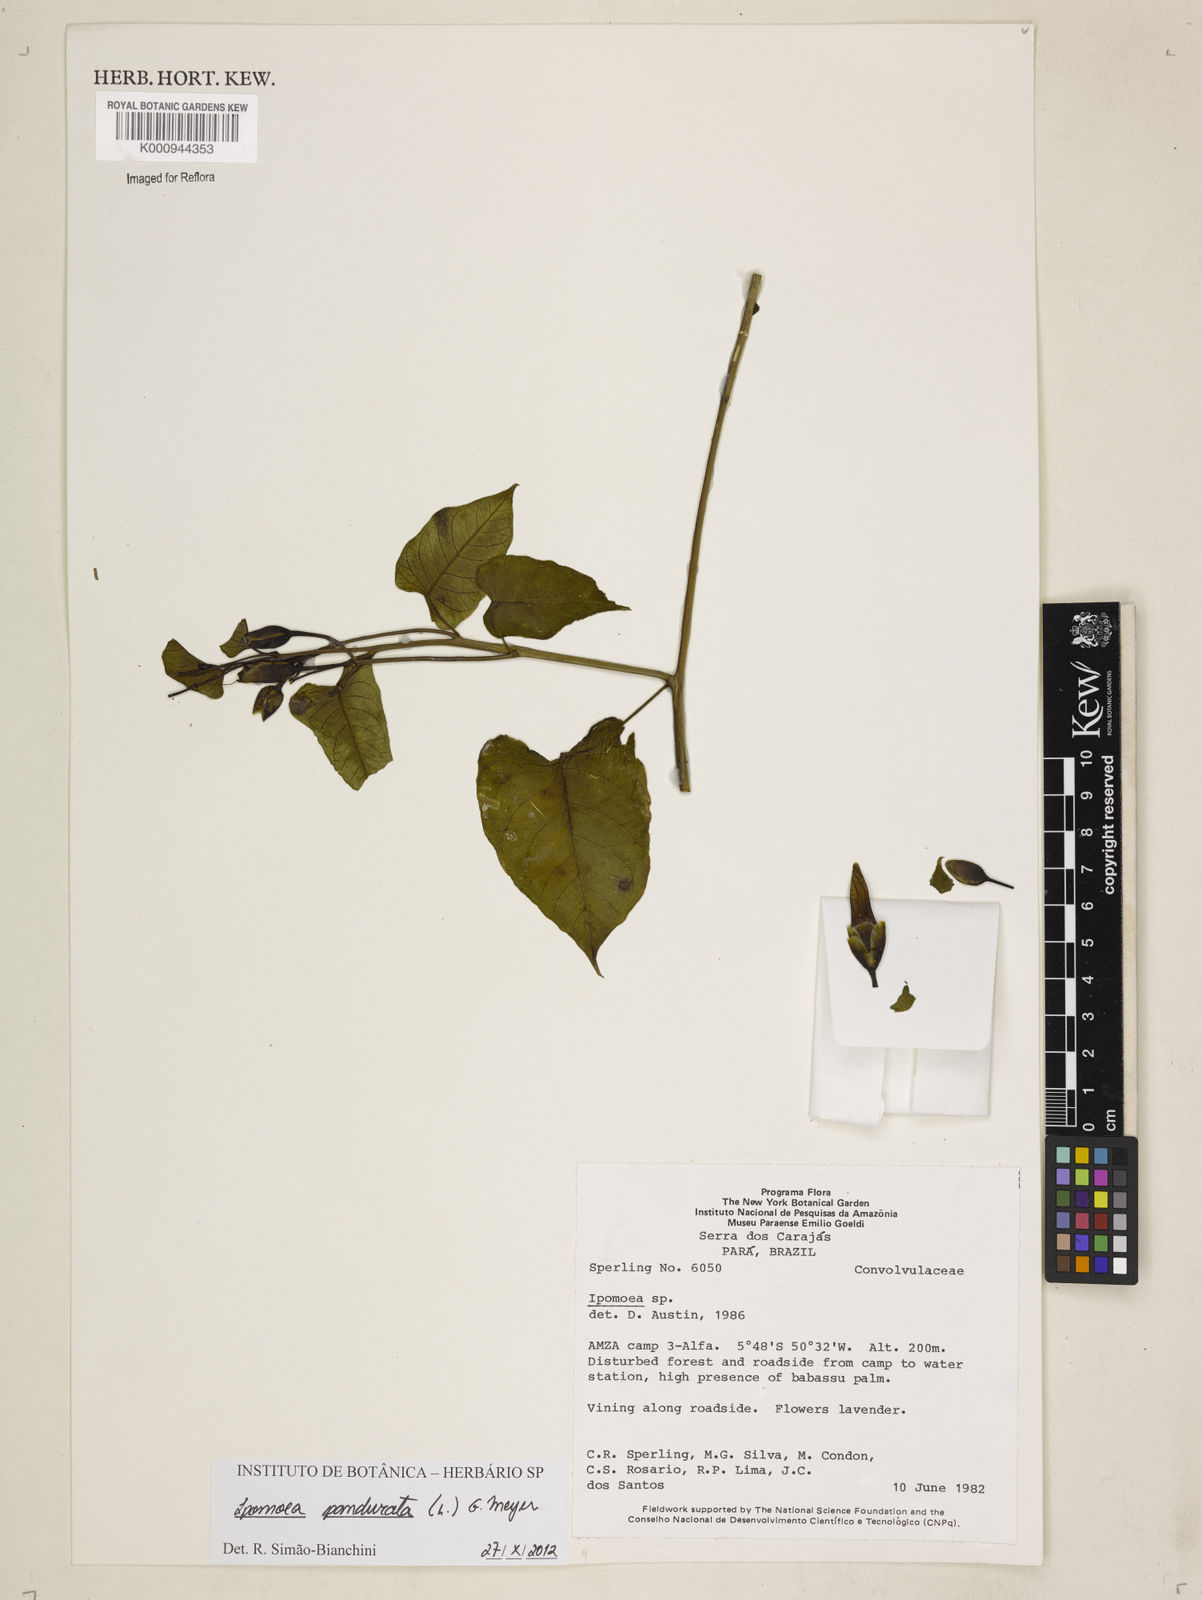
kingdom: Plantae
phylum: Tracheophyta
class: Magnoliopsida
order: Solanales
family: Convolvulaceae
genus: Ipomoea
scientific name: Ipomoea pandurata
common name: Man-of-the-earth
